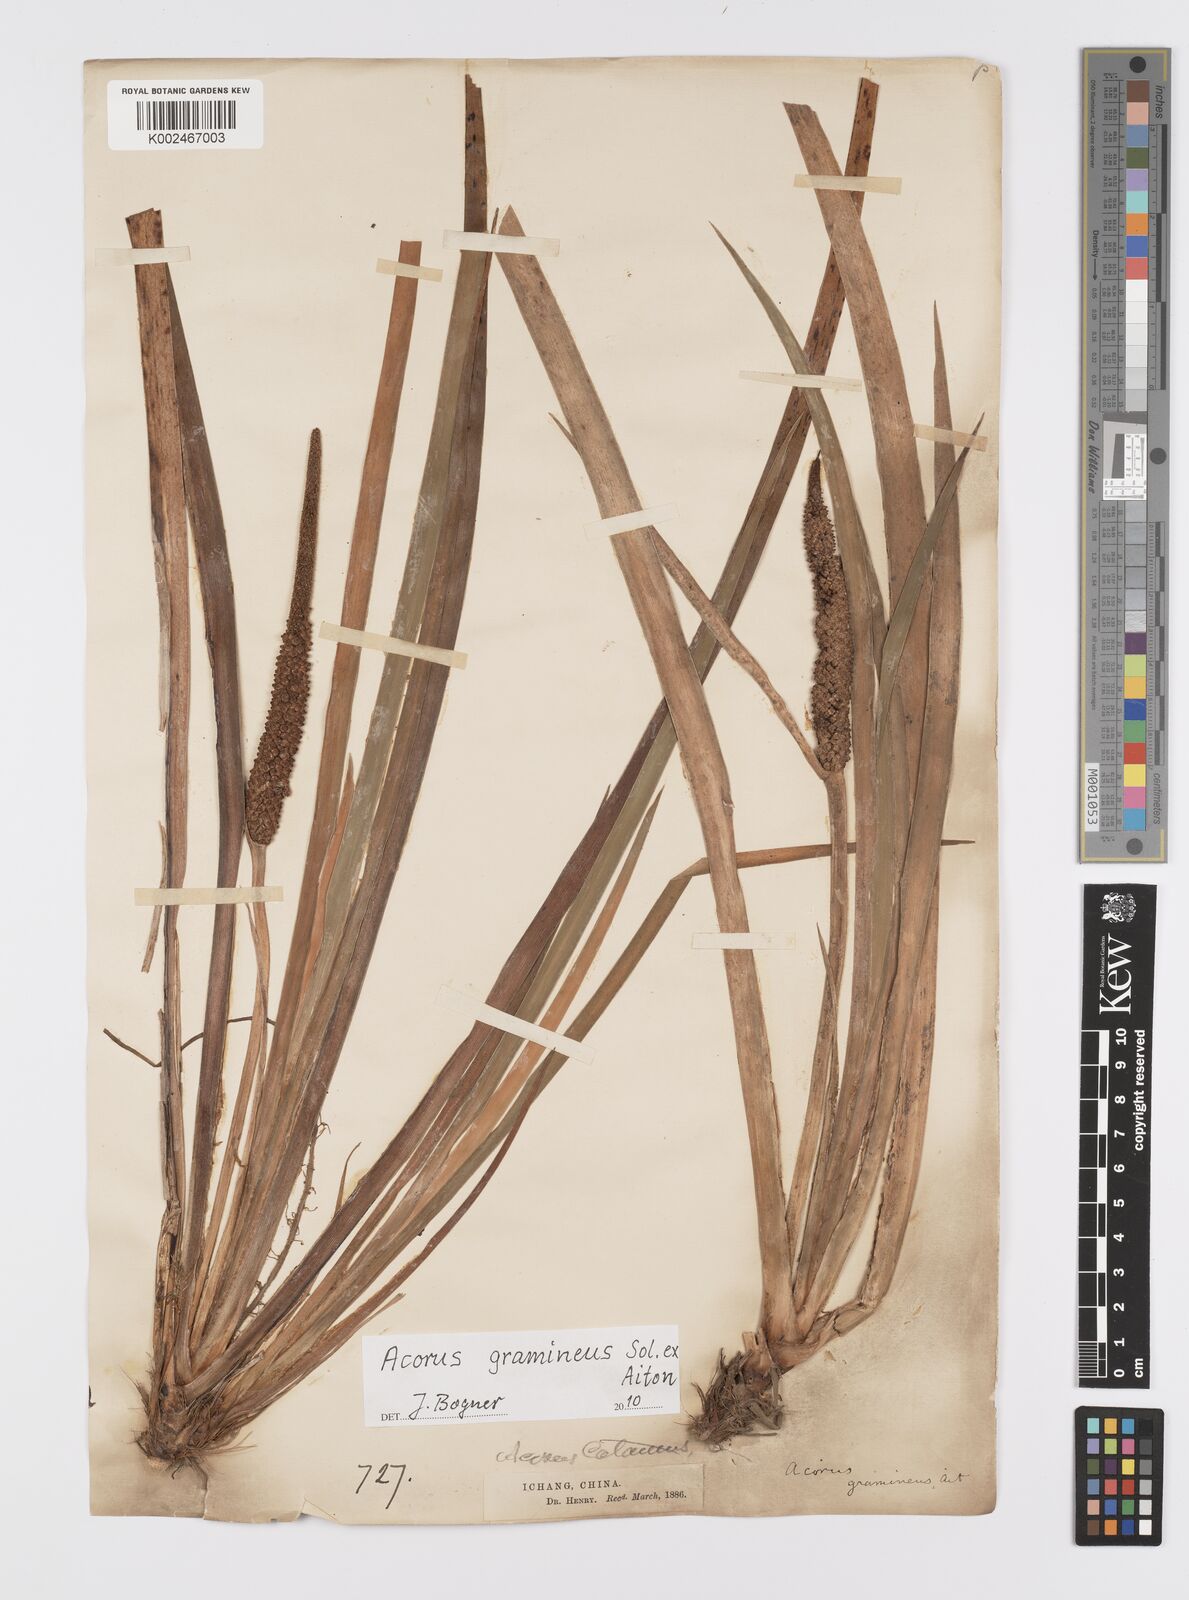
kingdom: Plantae
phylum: Tracheophyta
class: Liliopsida
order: Acorales
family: Acoraceae
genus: Acorus
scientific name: Acorus gramineus
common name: Slender sweet-flag
